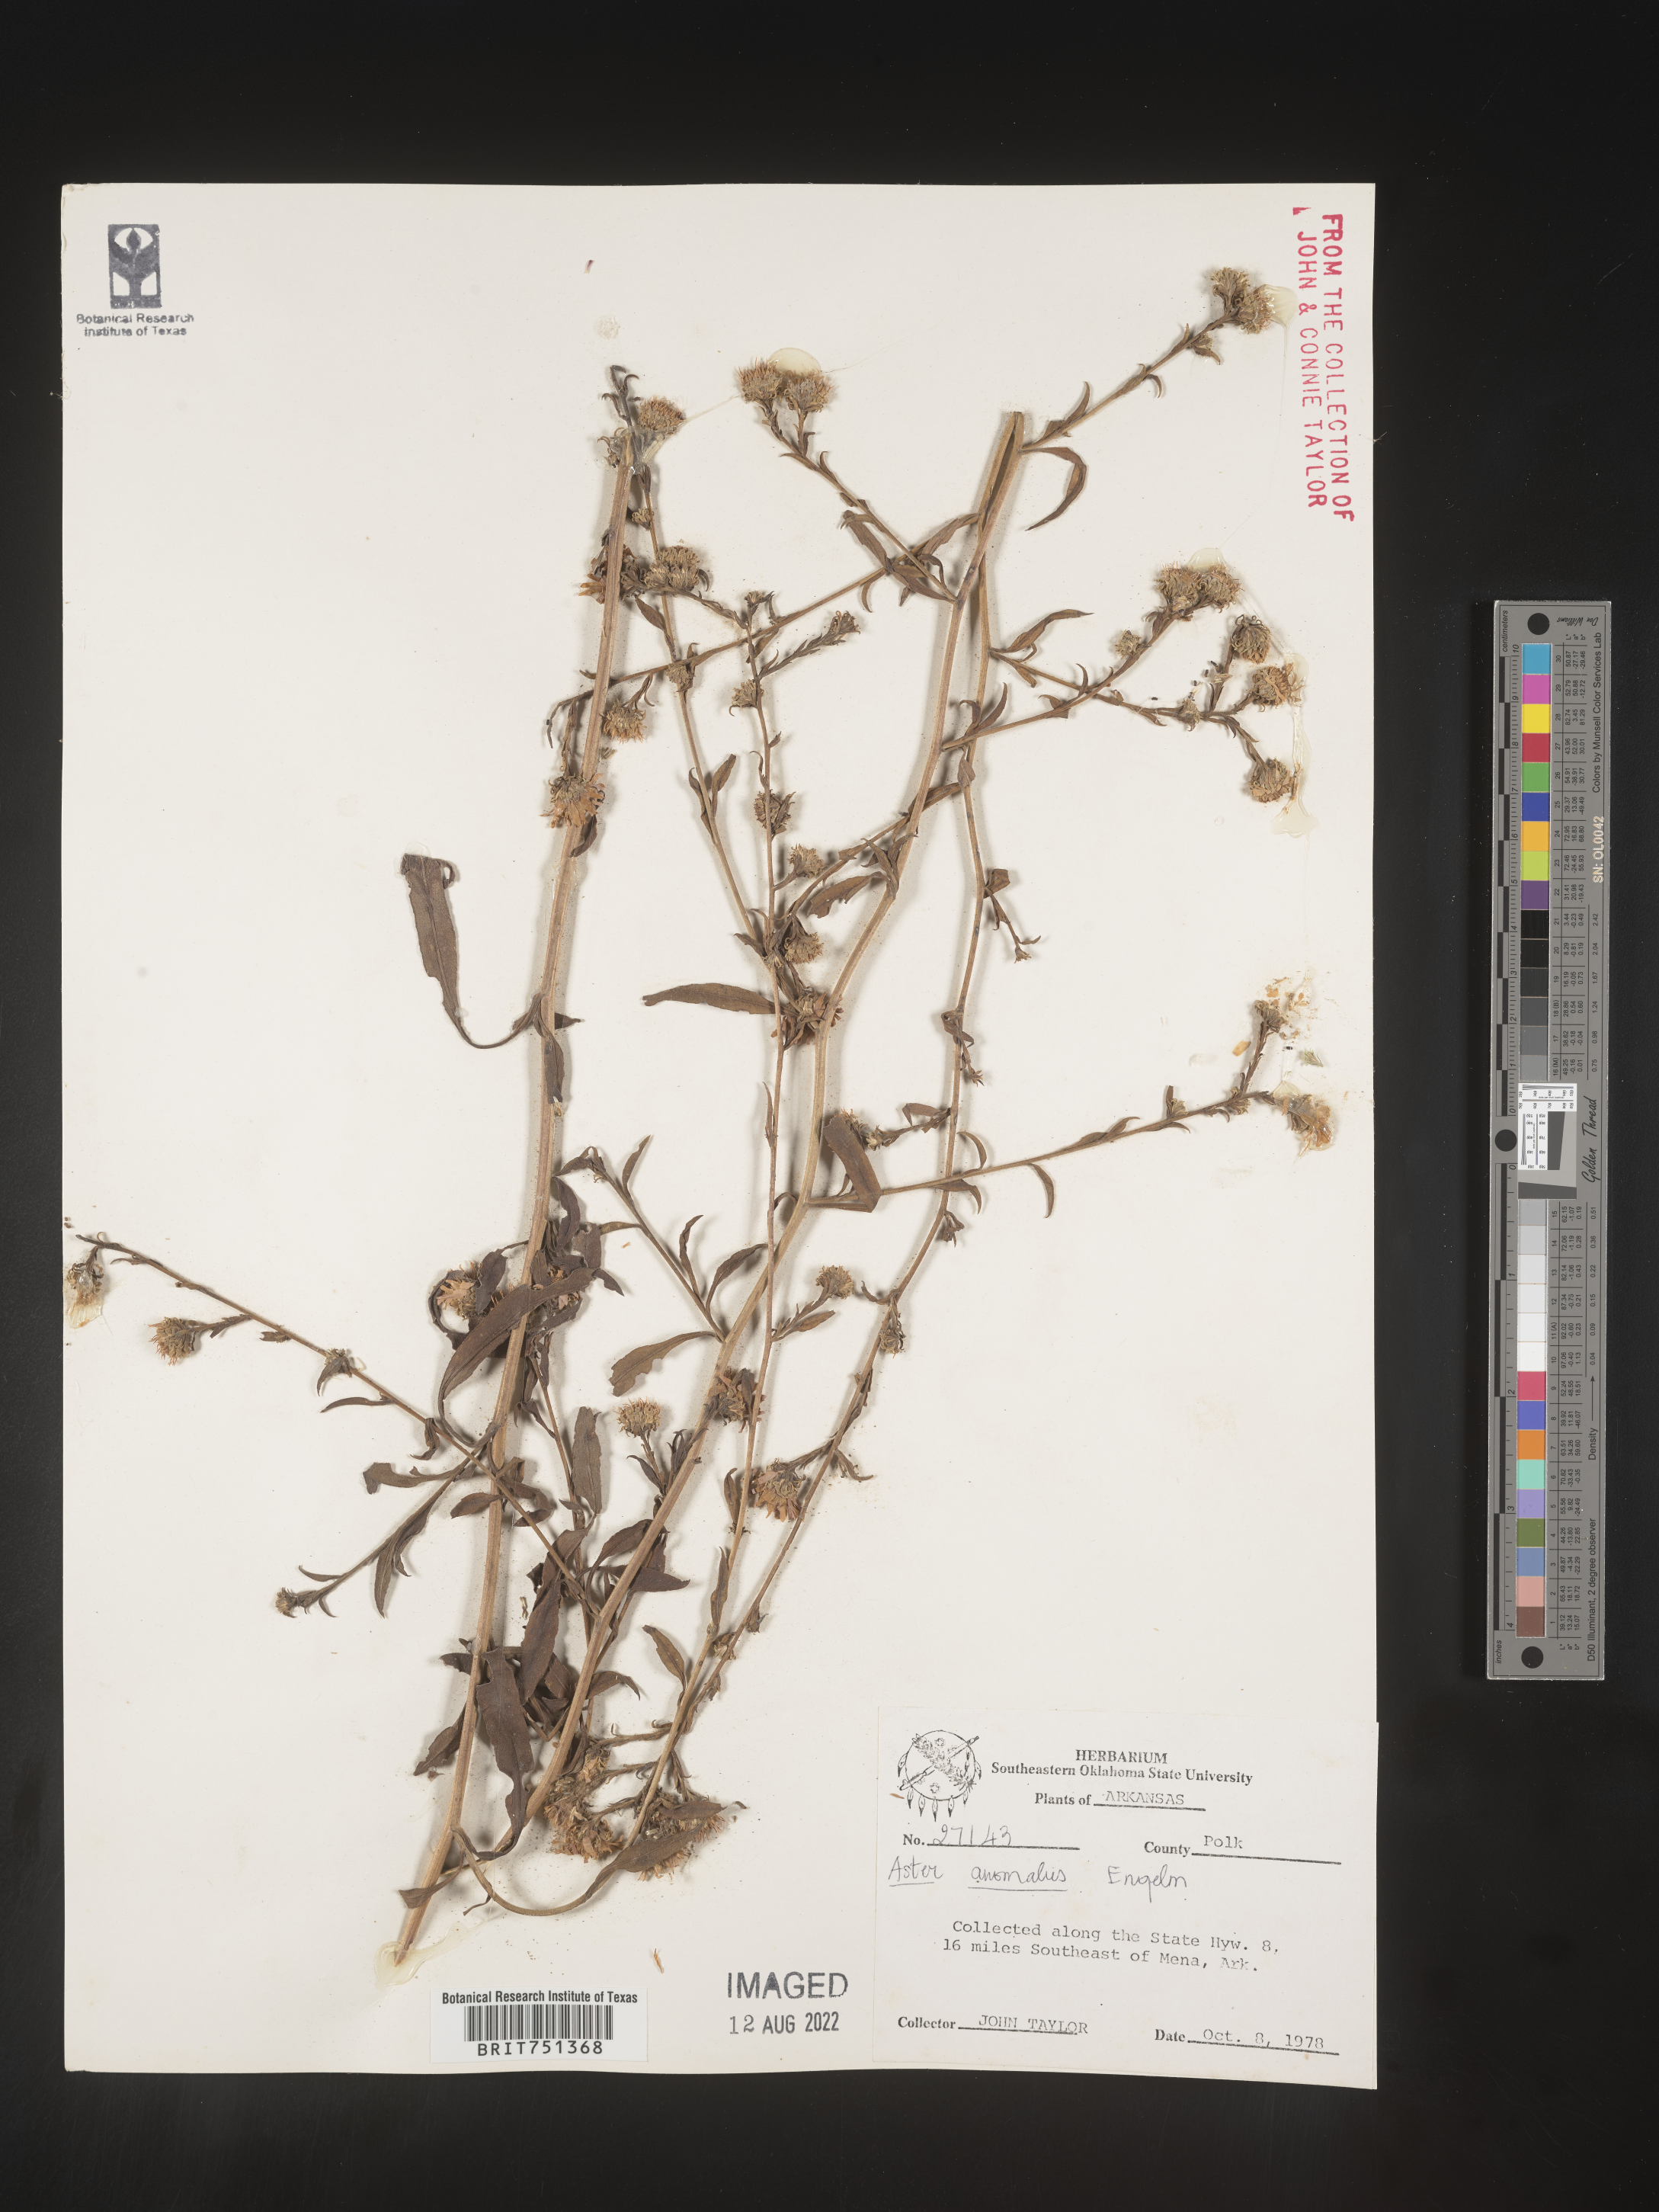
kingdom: Plantae
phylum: Tracheophyta
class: Magnoliopsida
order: Asterales
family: Asteraceae
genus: Symphyotrichum
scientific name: Symphyotrichum anomalum
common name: Many-ray aster
